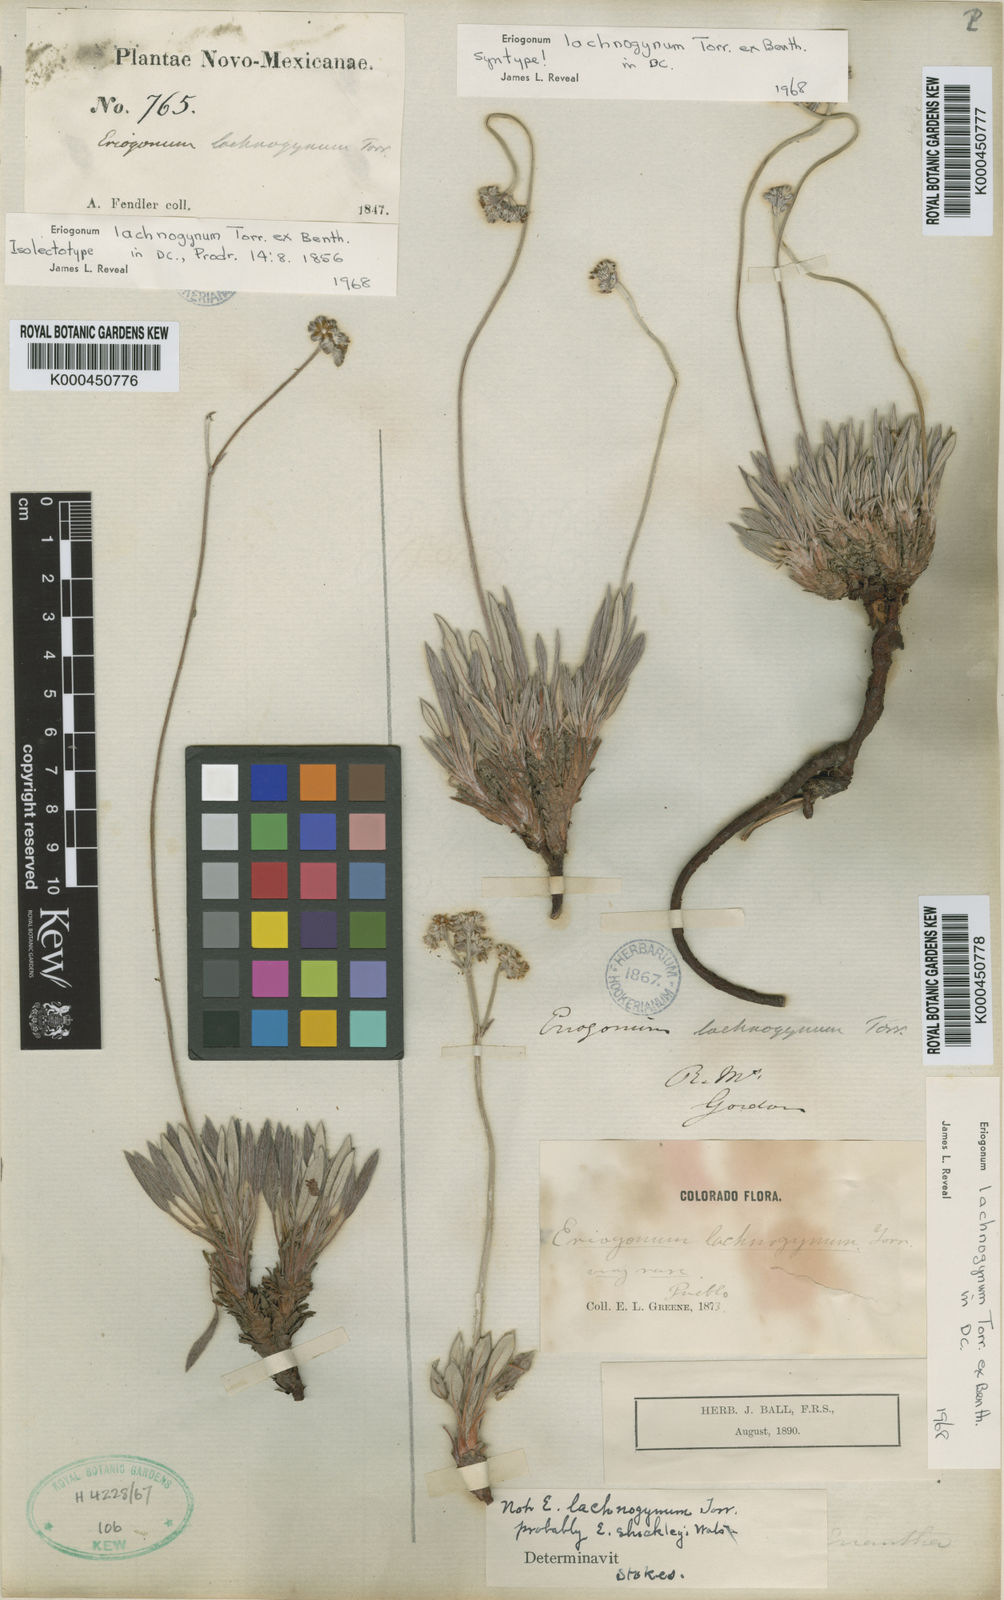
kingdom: Plantae
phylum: Tracheophyta
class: Magnoliopsida
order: Caryophyllales
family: Polygonaceae
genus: Eriogonum
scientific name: Eriogonum lachnogynum
